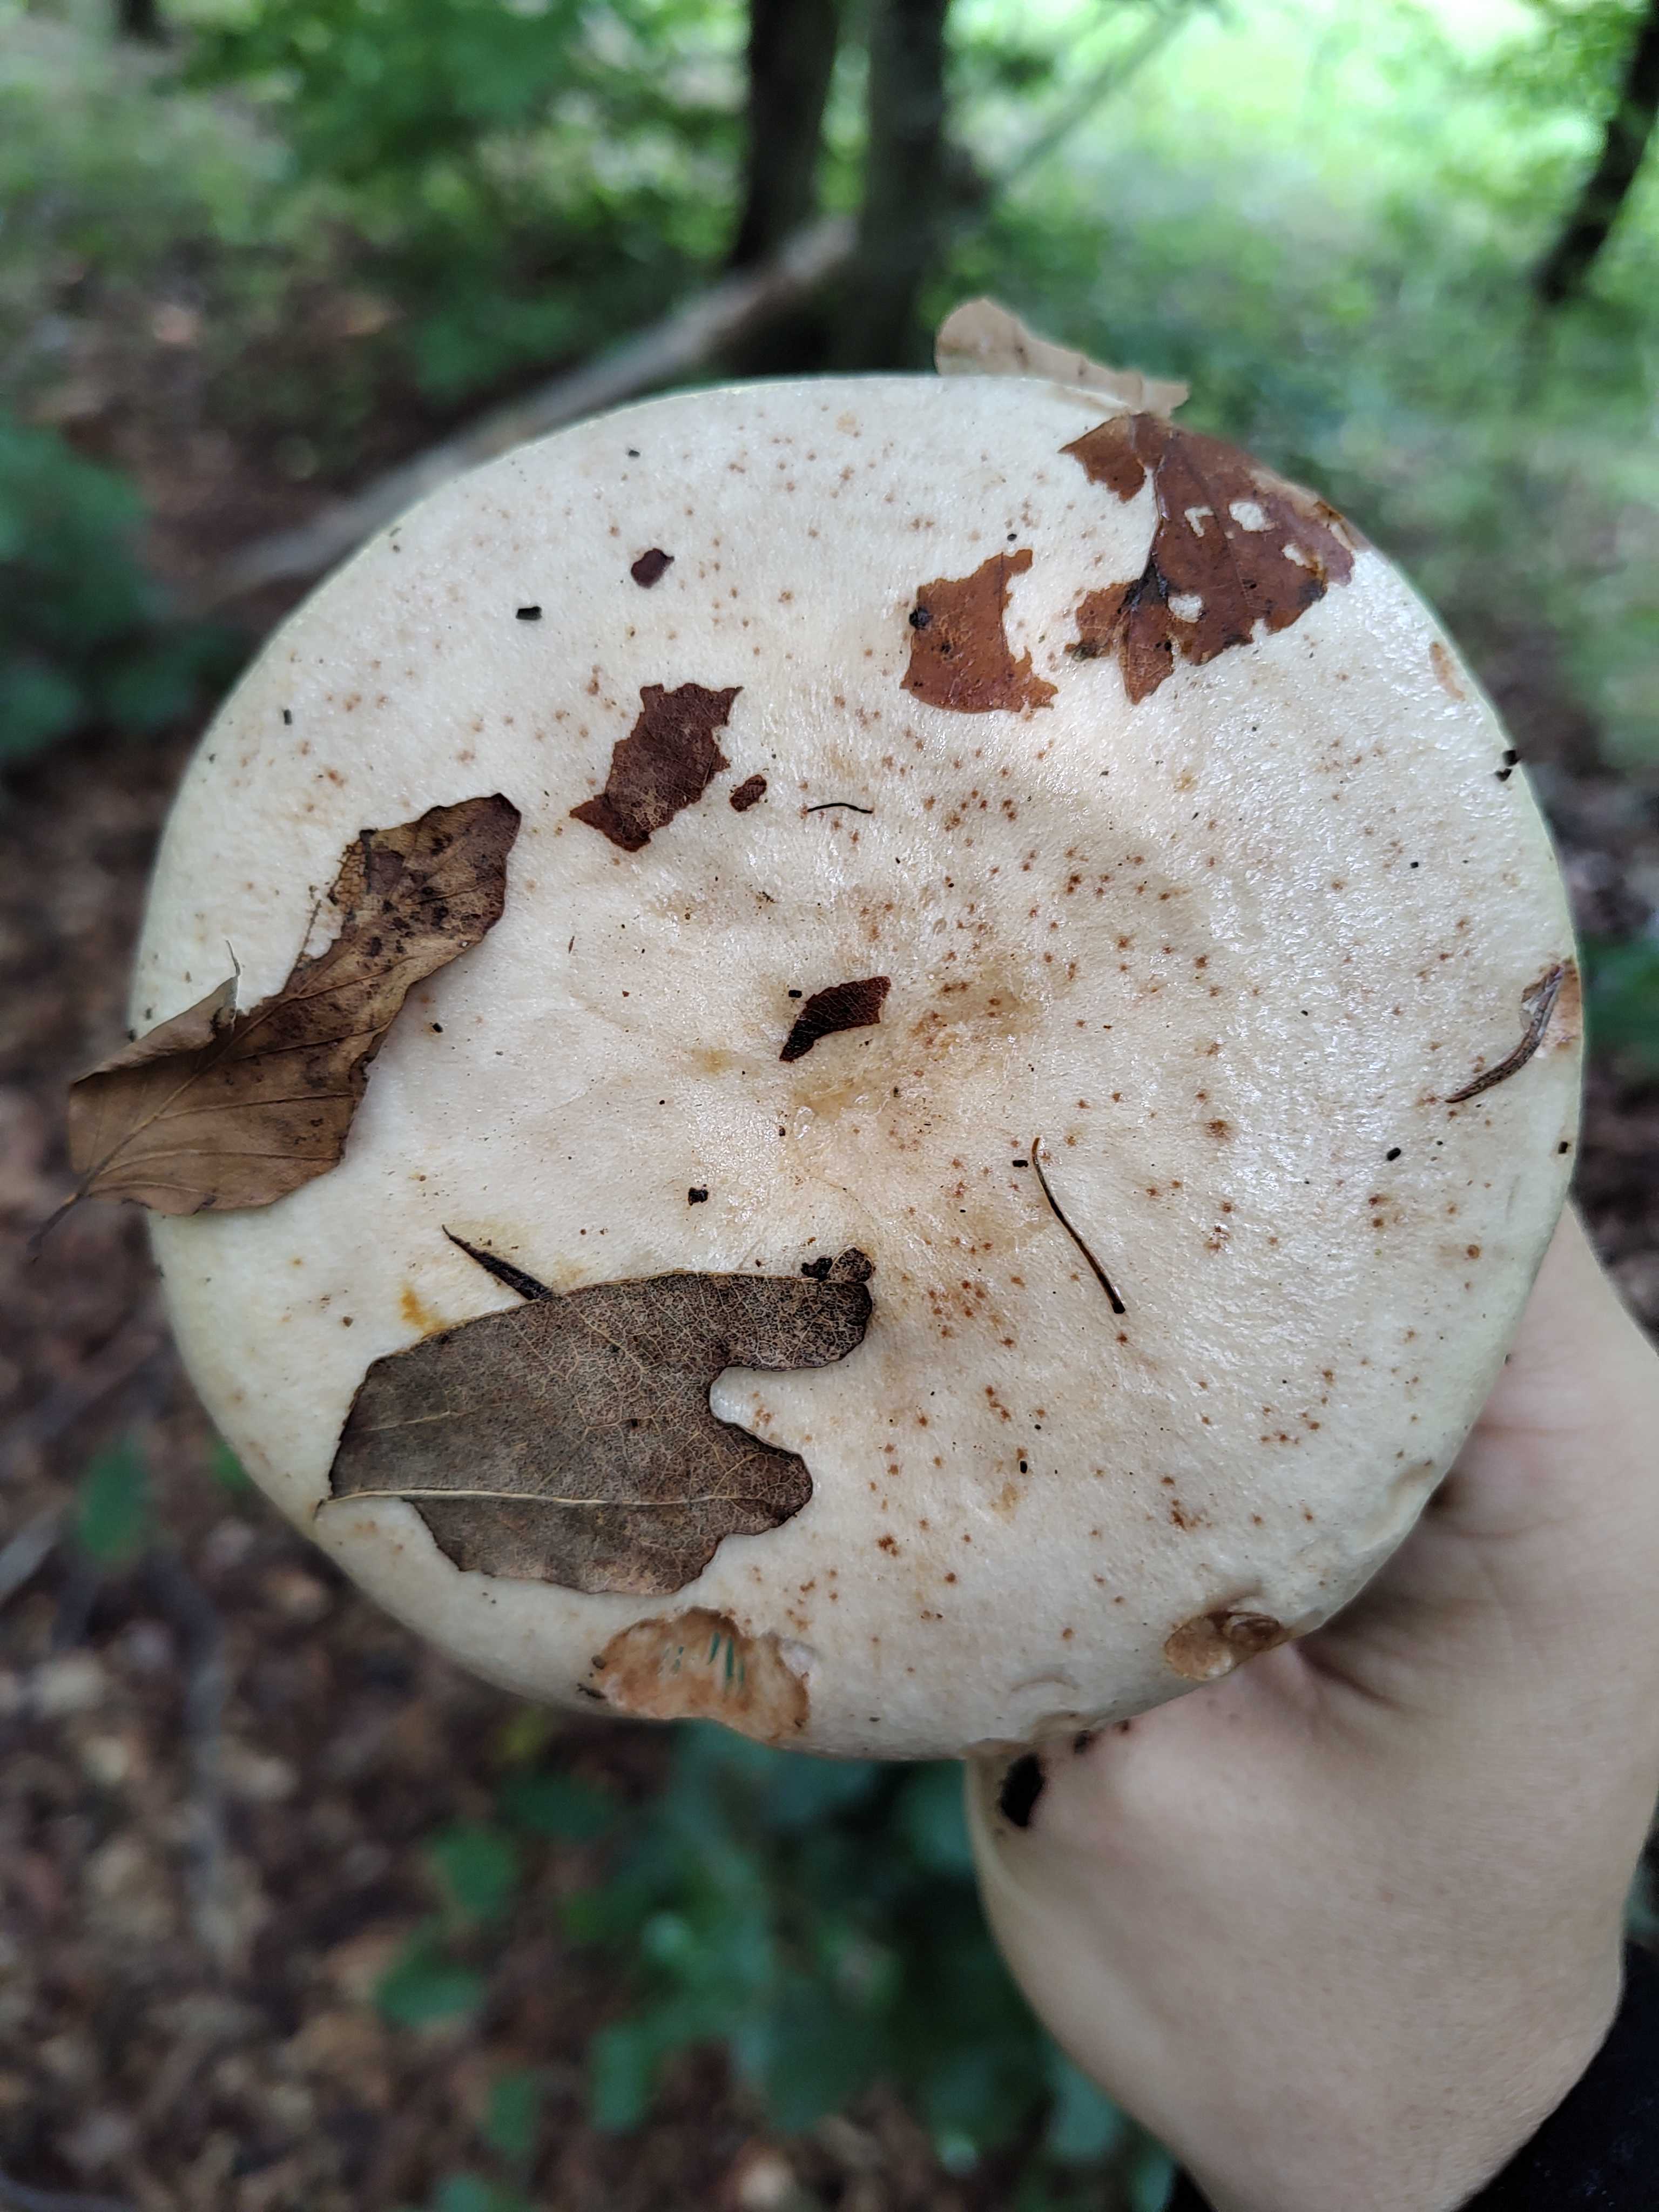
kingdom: Fungi
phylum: Basidiomycota
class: Agaricomycetes
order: Russulales
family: Russulaceae
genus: Lactarius
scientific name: Lactarius pallidus
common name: bleg mælkehat
